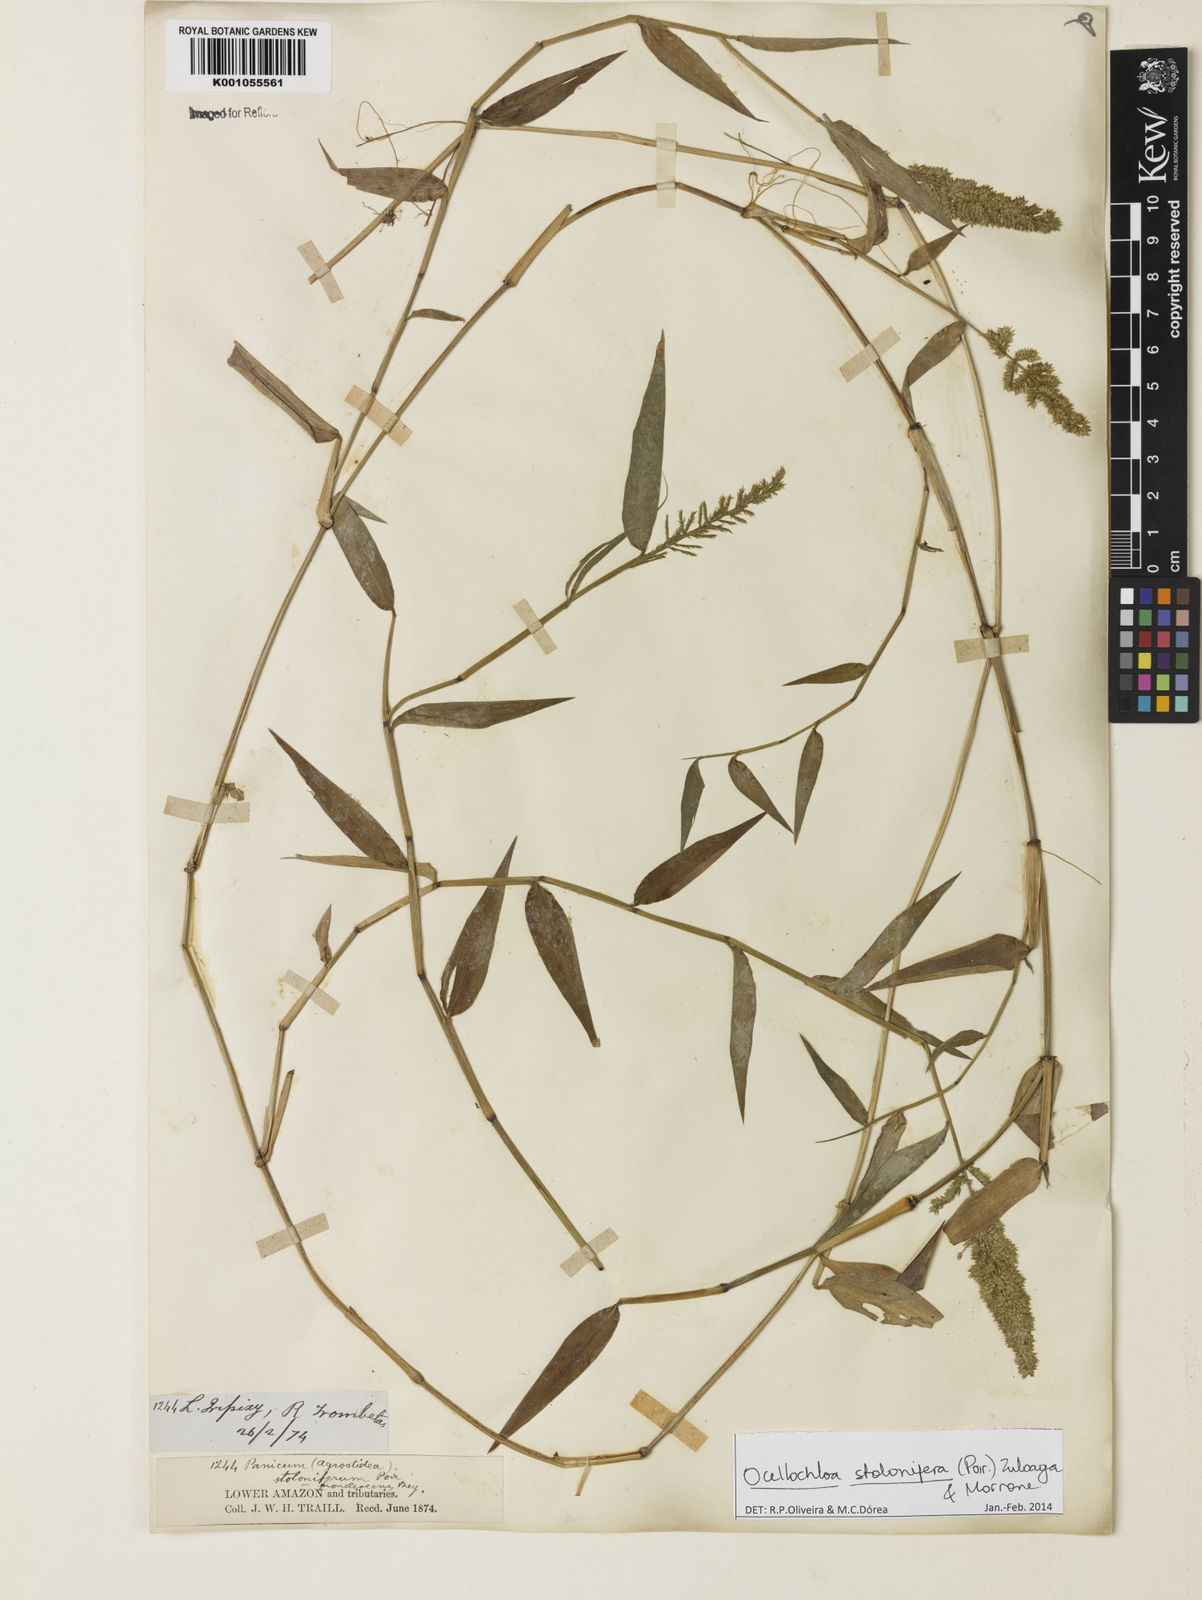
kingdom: Plantae
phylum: Tracheophyta
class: Liliopsida
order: Poales
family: Poaceae
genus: Ocellochloa
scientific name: Ocellochloa stolonifera
